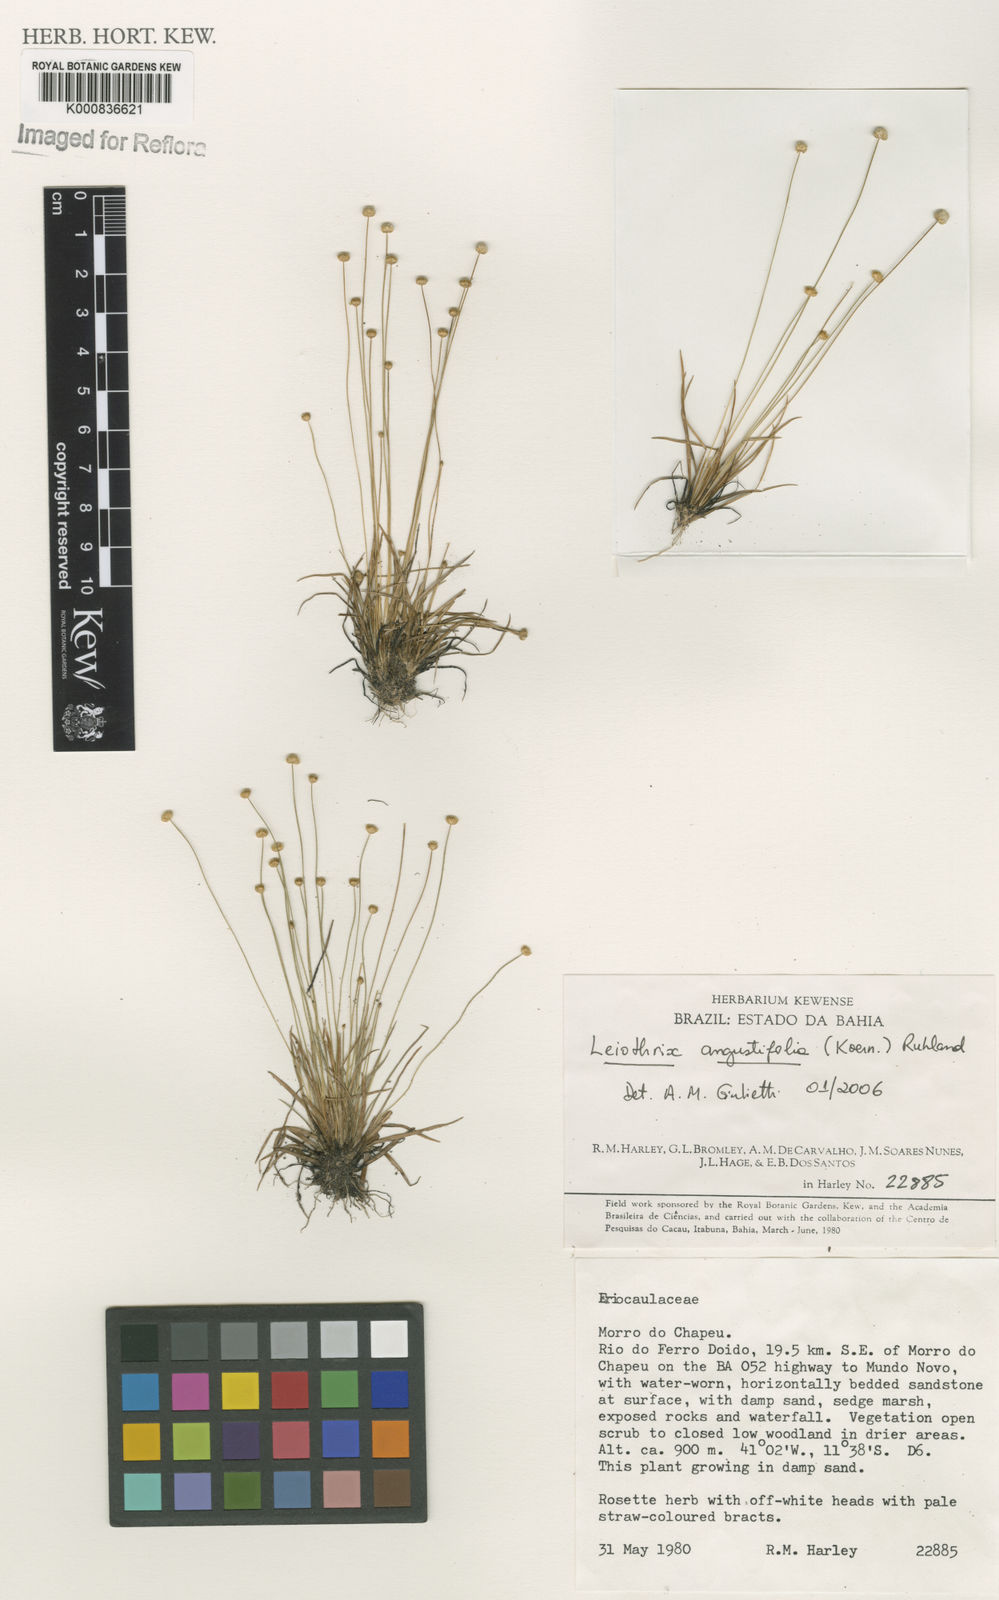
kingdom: Plantae
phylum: Tracheophyta
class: Liliopsida
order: Poales
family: Eriocaulaceae
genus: Leiothrix
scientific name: Leiothrix angustifolia
